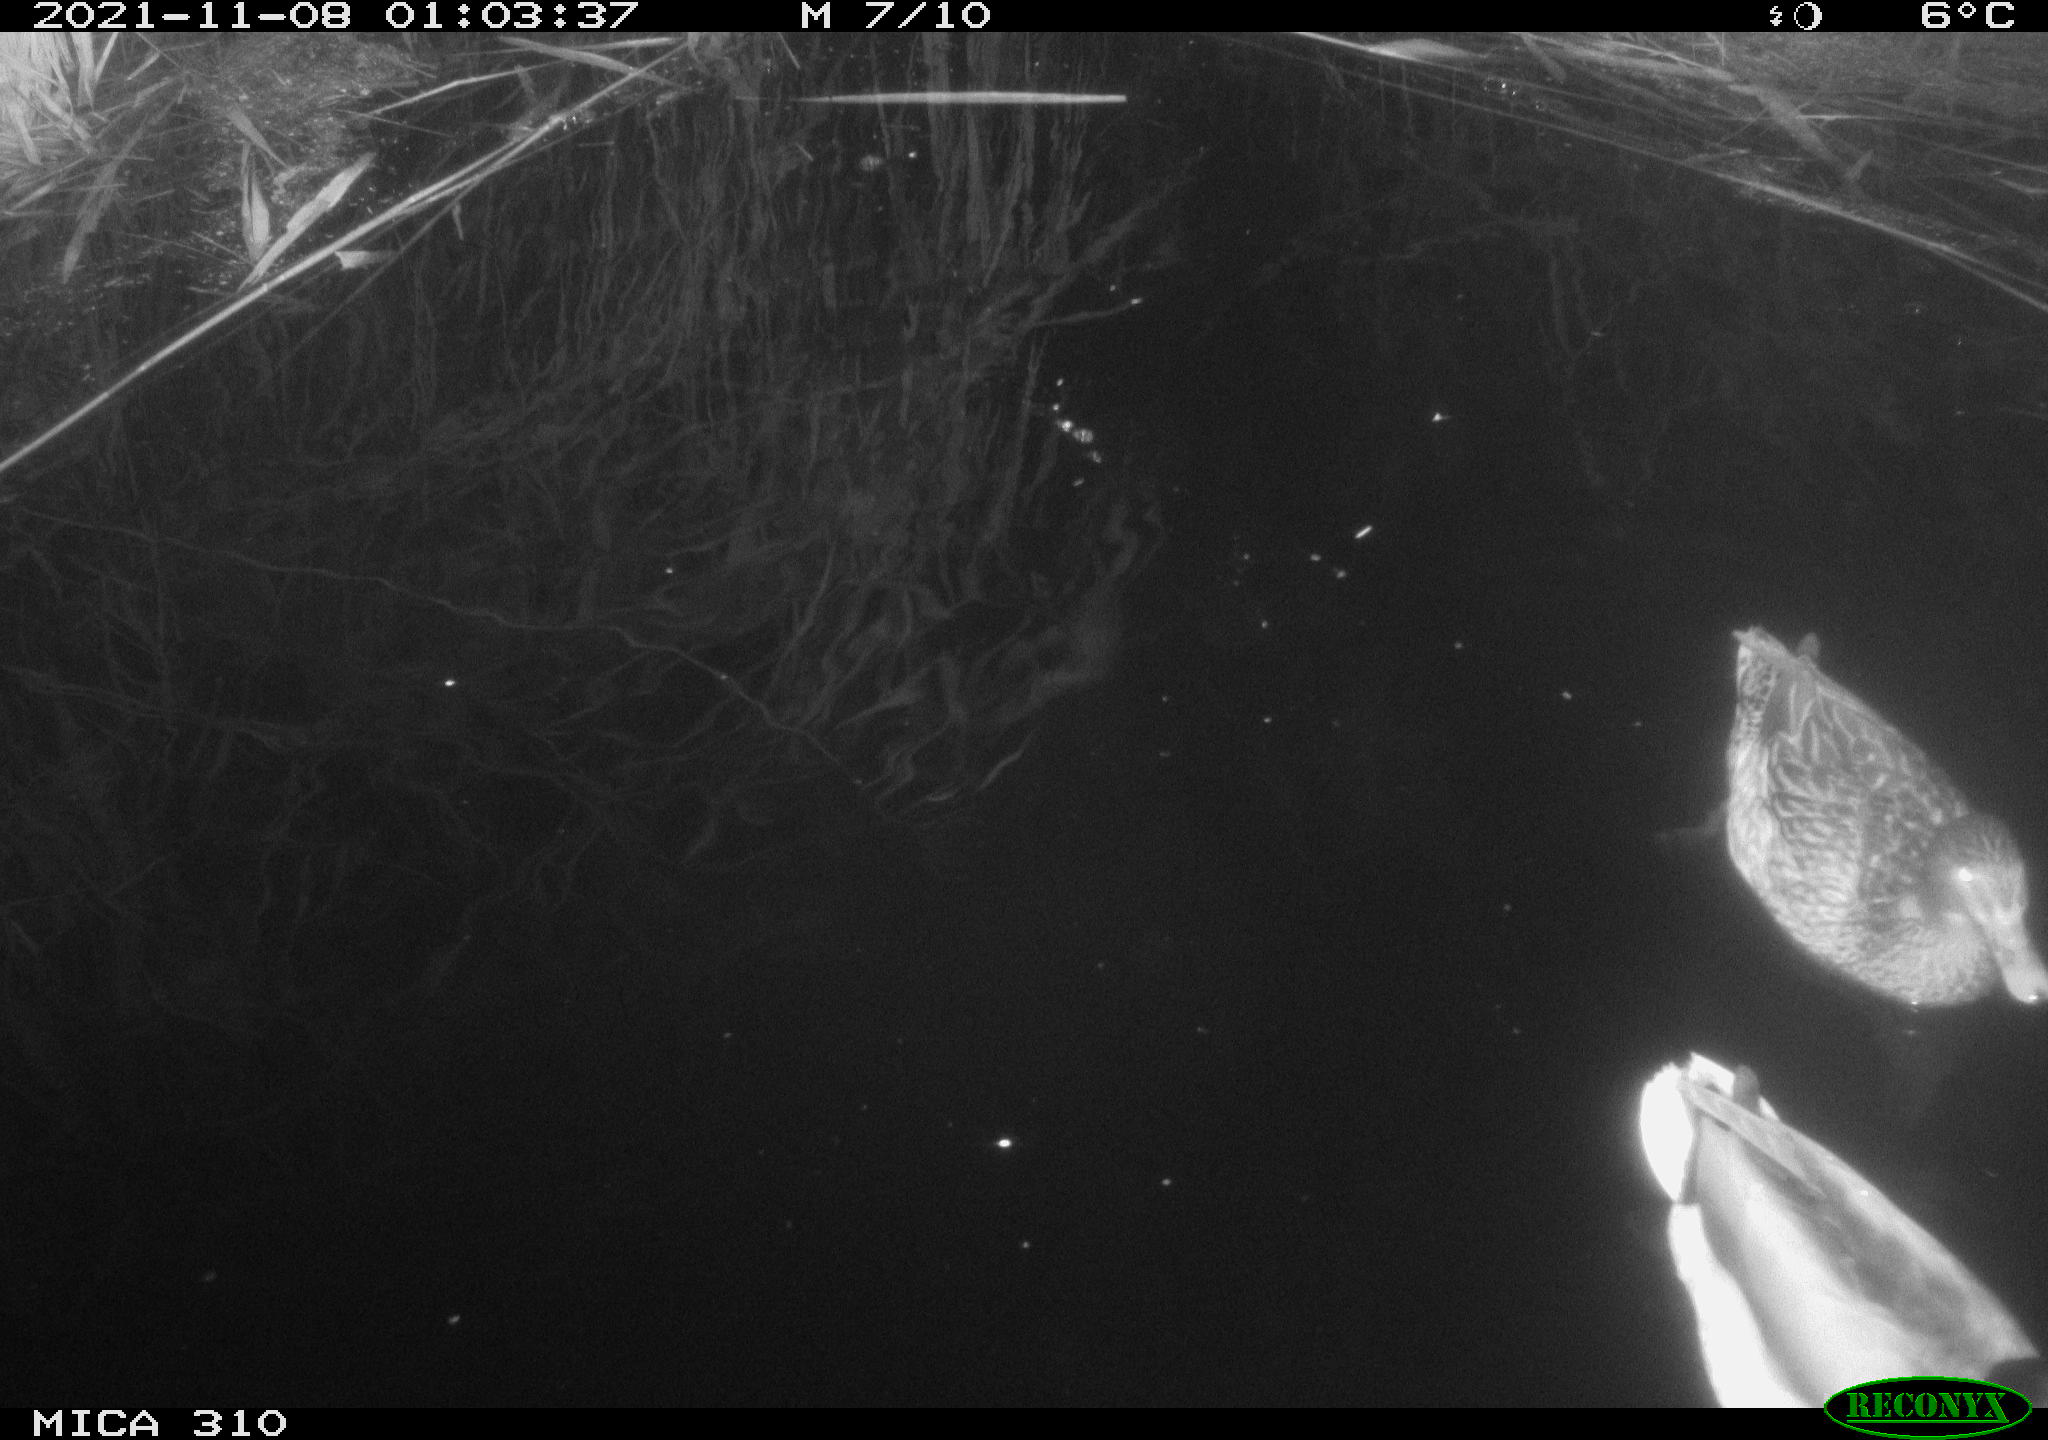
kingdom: Animalia
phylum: Chordata
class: Aves
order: Anseriformes
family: Anatidae
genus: Mareca
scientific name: Mareca strepera
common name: Gadwall
